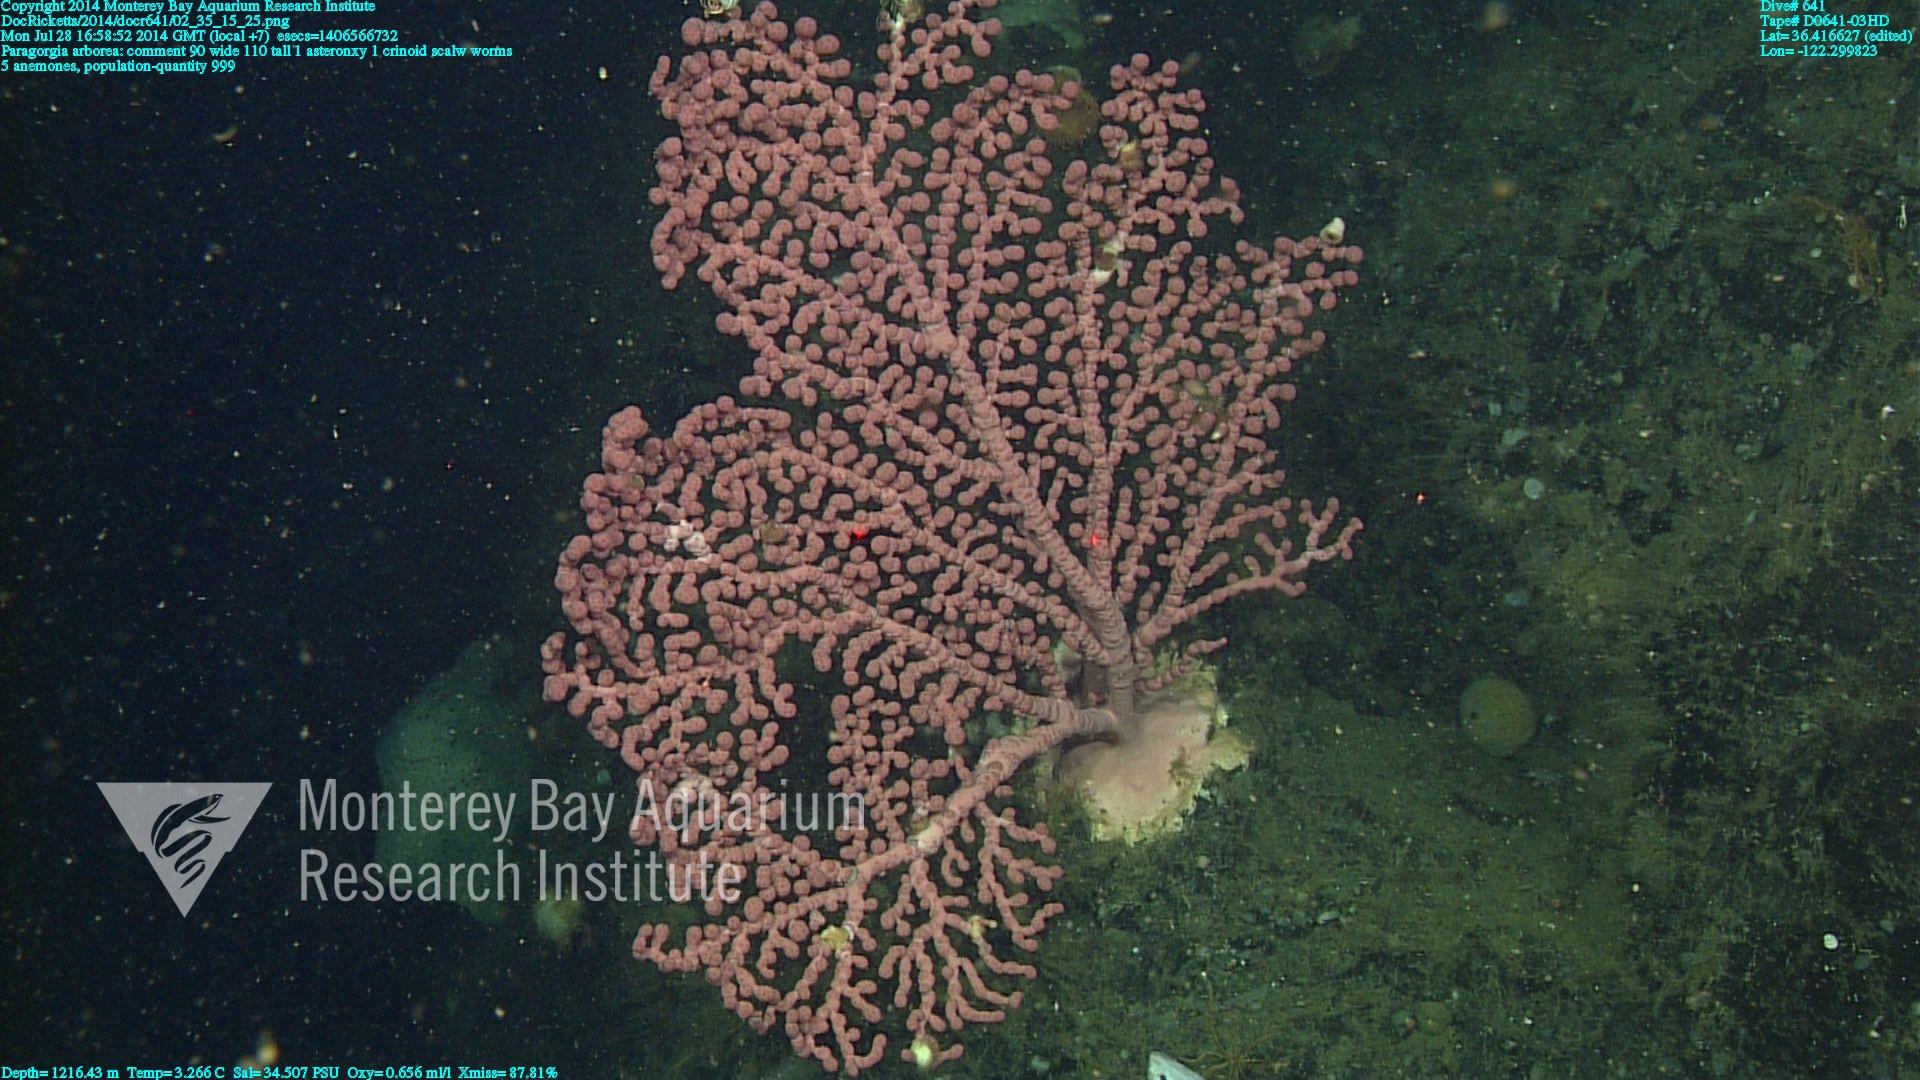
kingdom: Animalia
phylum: Cnidaria
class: Anthozoa
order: Scleralcyonacea
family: Coralliidae
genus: Paragorgia
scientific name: Paragorgia arborea
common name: Bubble gum coral
